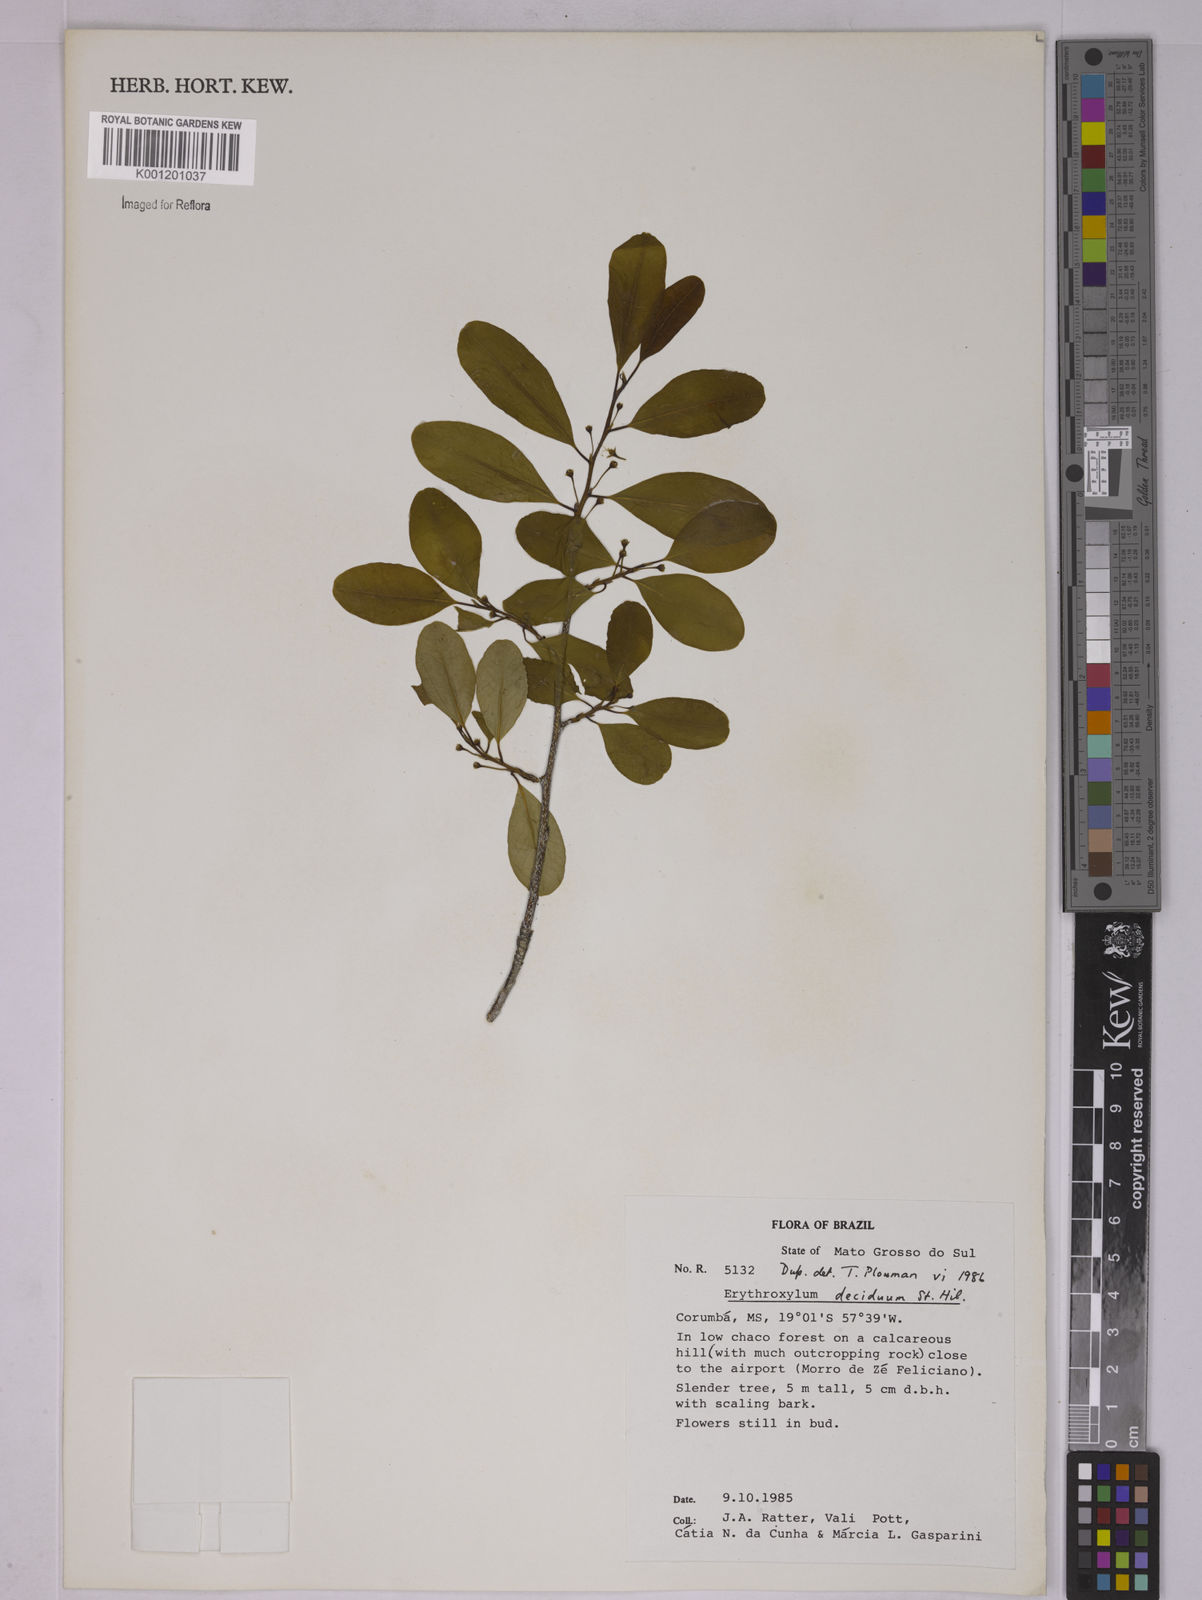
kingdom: Plantae
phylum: Tracheophyta
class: Magnoliopsida
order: Malpighiales
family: Erythroxylaceae
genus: Erythroxylum
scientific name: Erythroxylum deciduum
